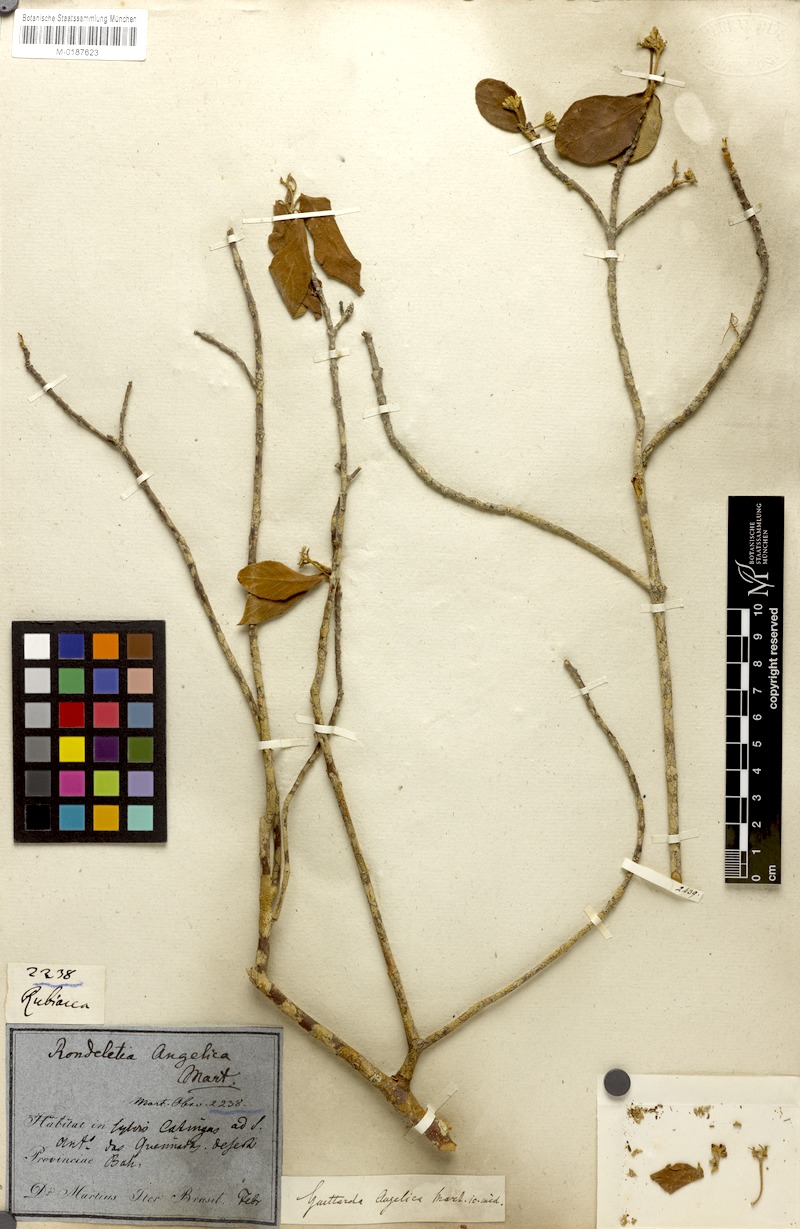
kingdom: Plantae
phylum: Tracheophyta
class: Magnoliopsida
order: Gentianales
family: Rubiaceae
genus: Guettarda
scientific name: Guettarda angelica
